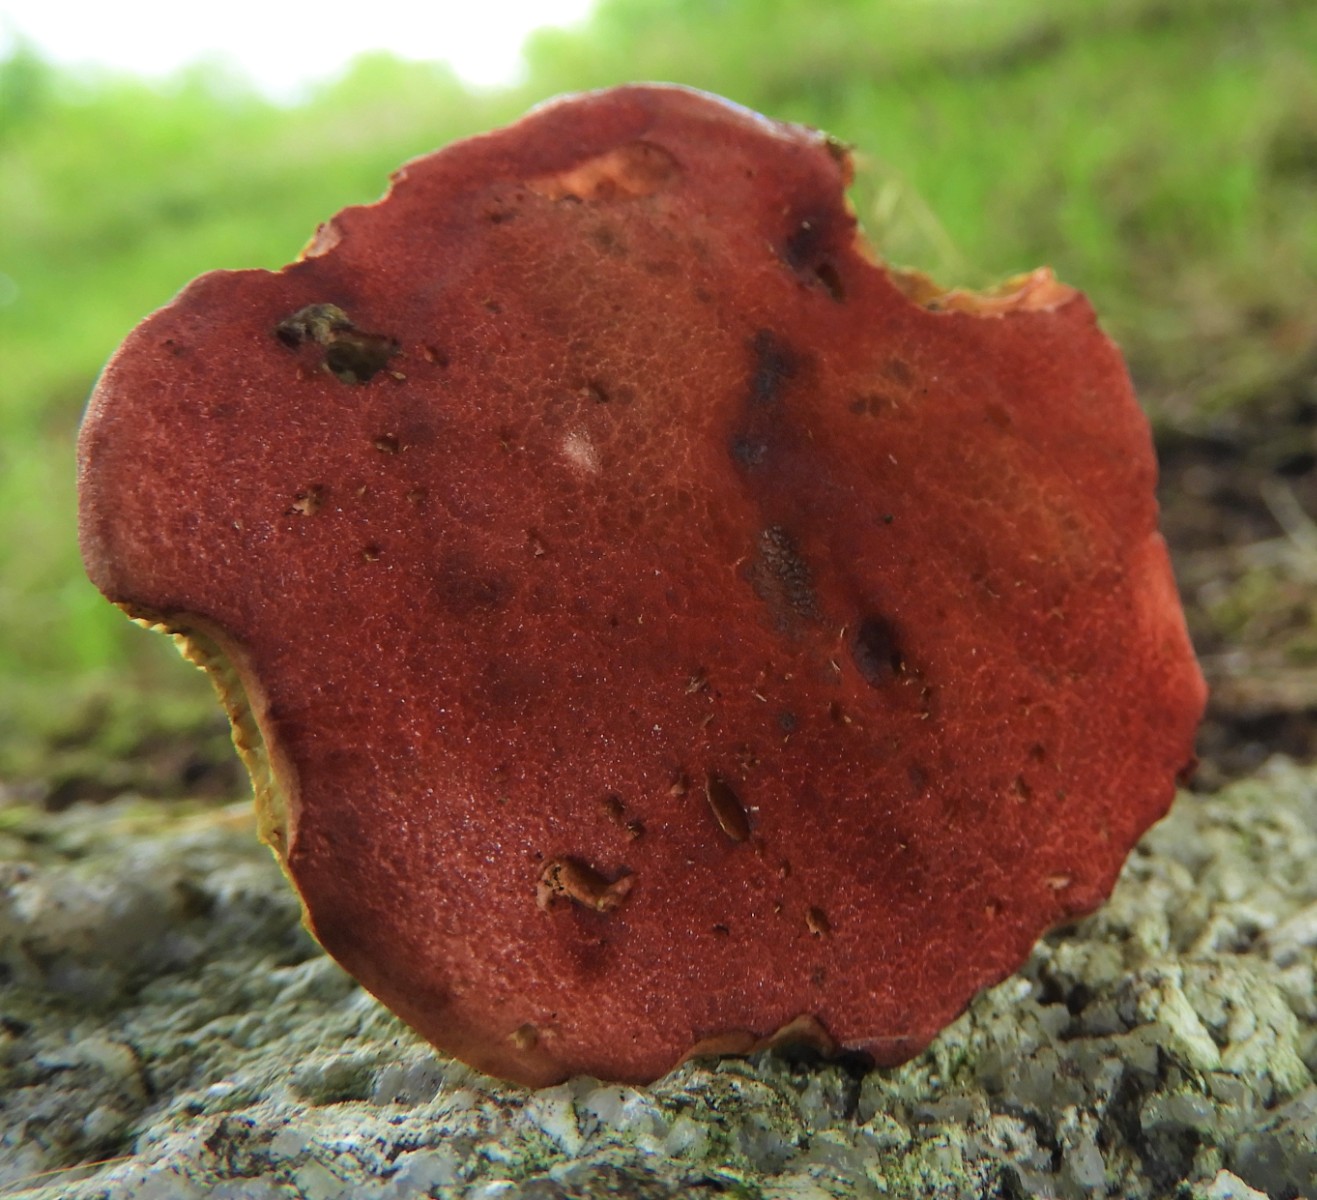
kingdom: Fungi
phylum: Basidiomycota
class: Agaricomycetes
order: Boletales
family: Boletaceae
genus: Hortiboletus
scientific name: Hortiboletus
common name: dværgrørhat
